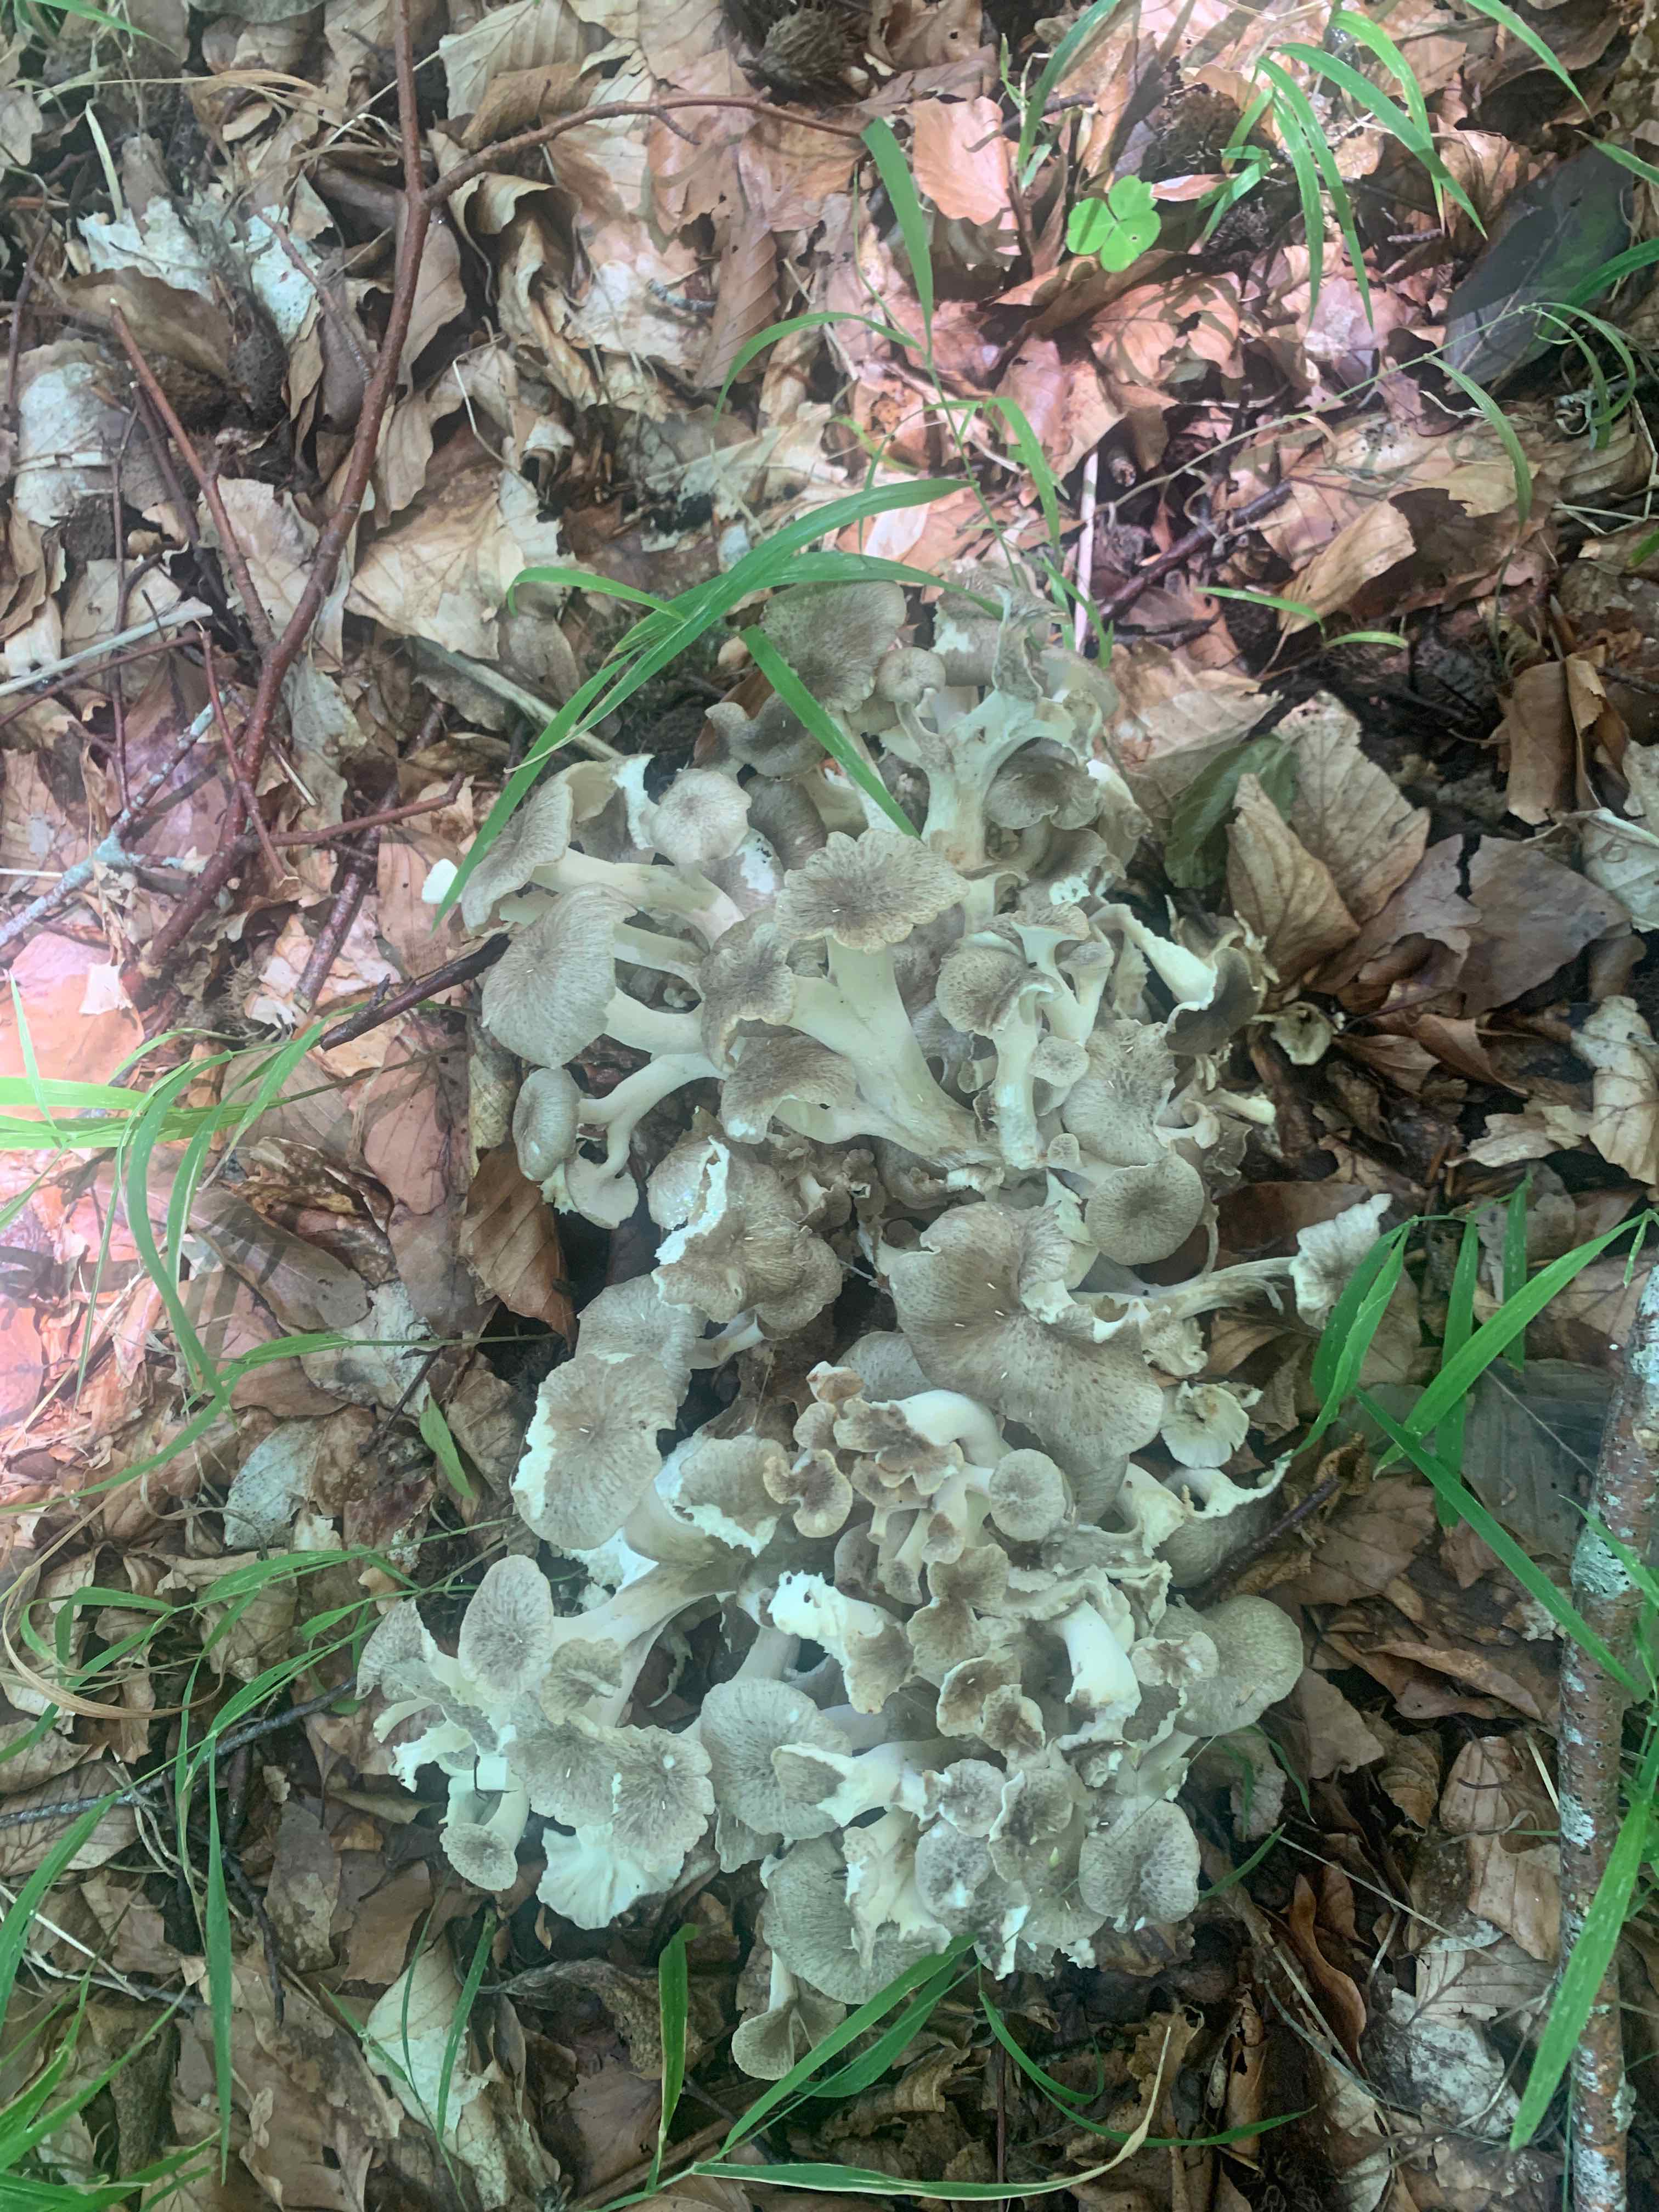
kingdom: Fungi
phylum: Basidiomycota
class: Agaricomycetes
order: Polyporales
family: Polyporaceae
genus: Polyporus
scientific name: Polyporus umbellatus
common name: skærmformet stilkporesvamp
